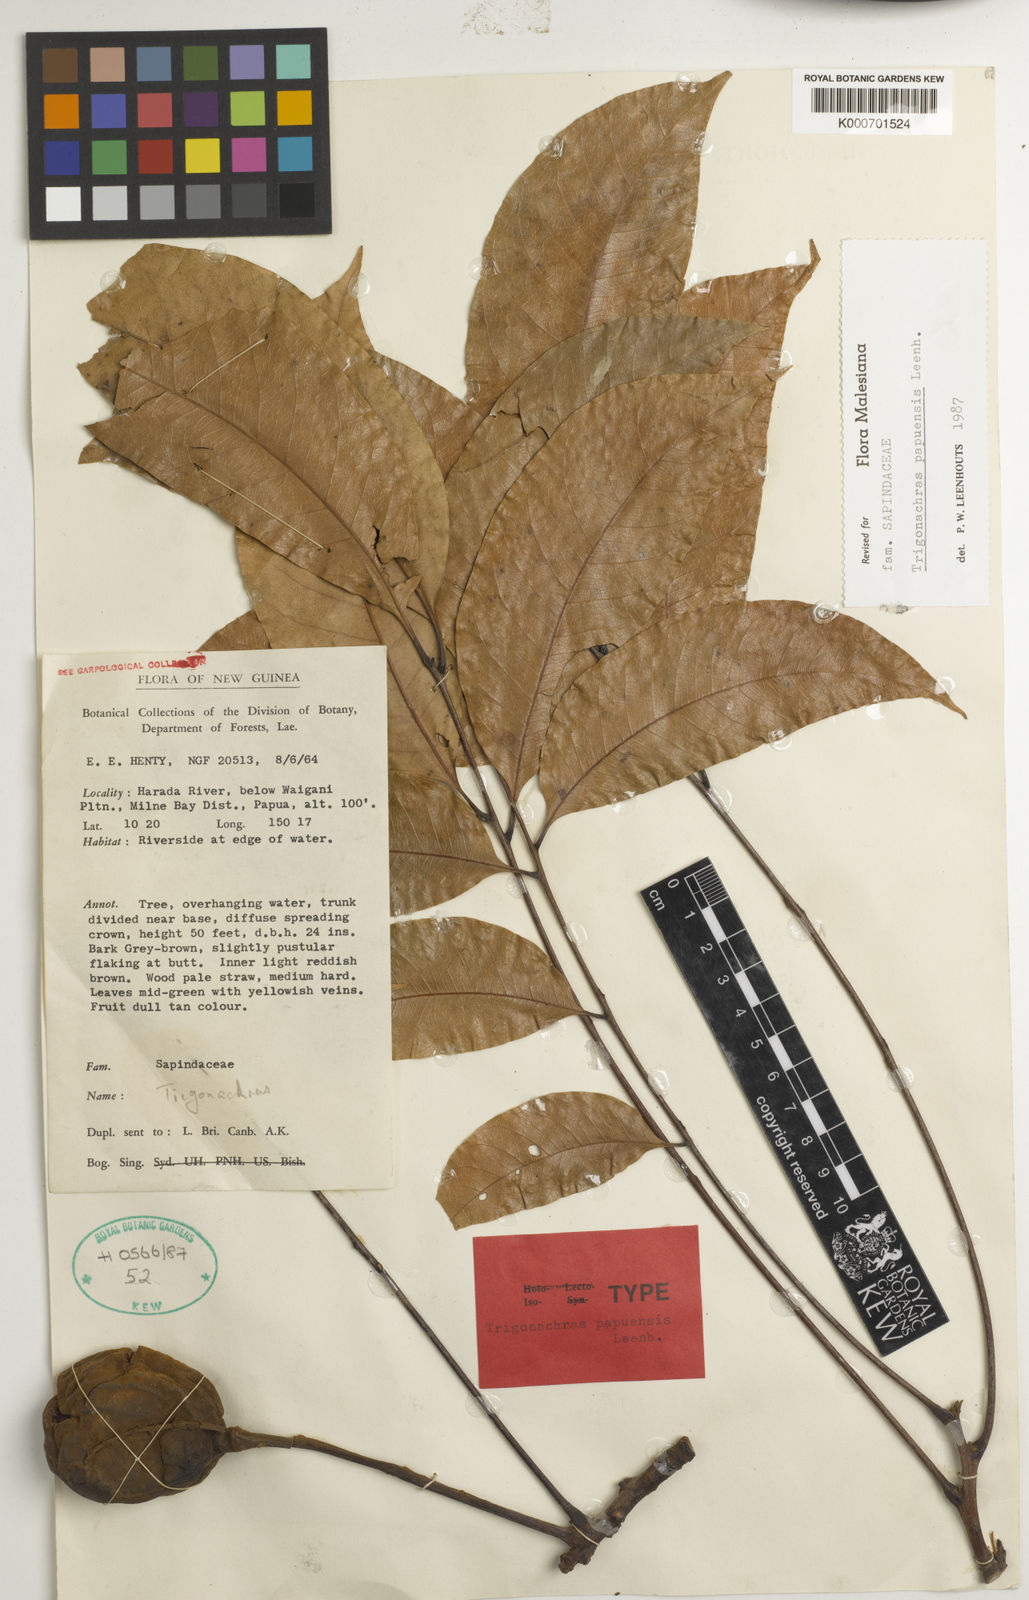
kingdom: Plantae
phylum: Tracheophyta
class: Magnoliopsida
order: Sapindales
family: Sapindaceae
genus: Trigonachras
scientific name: Trigonachras papuensis
